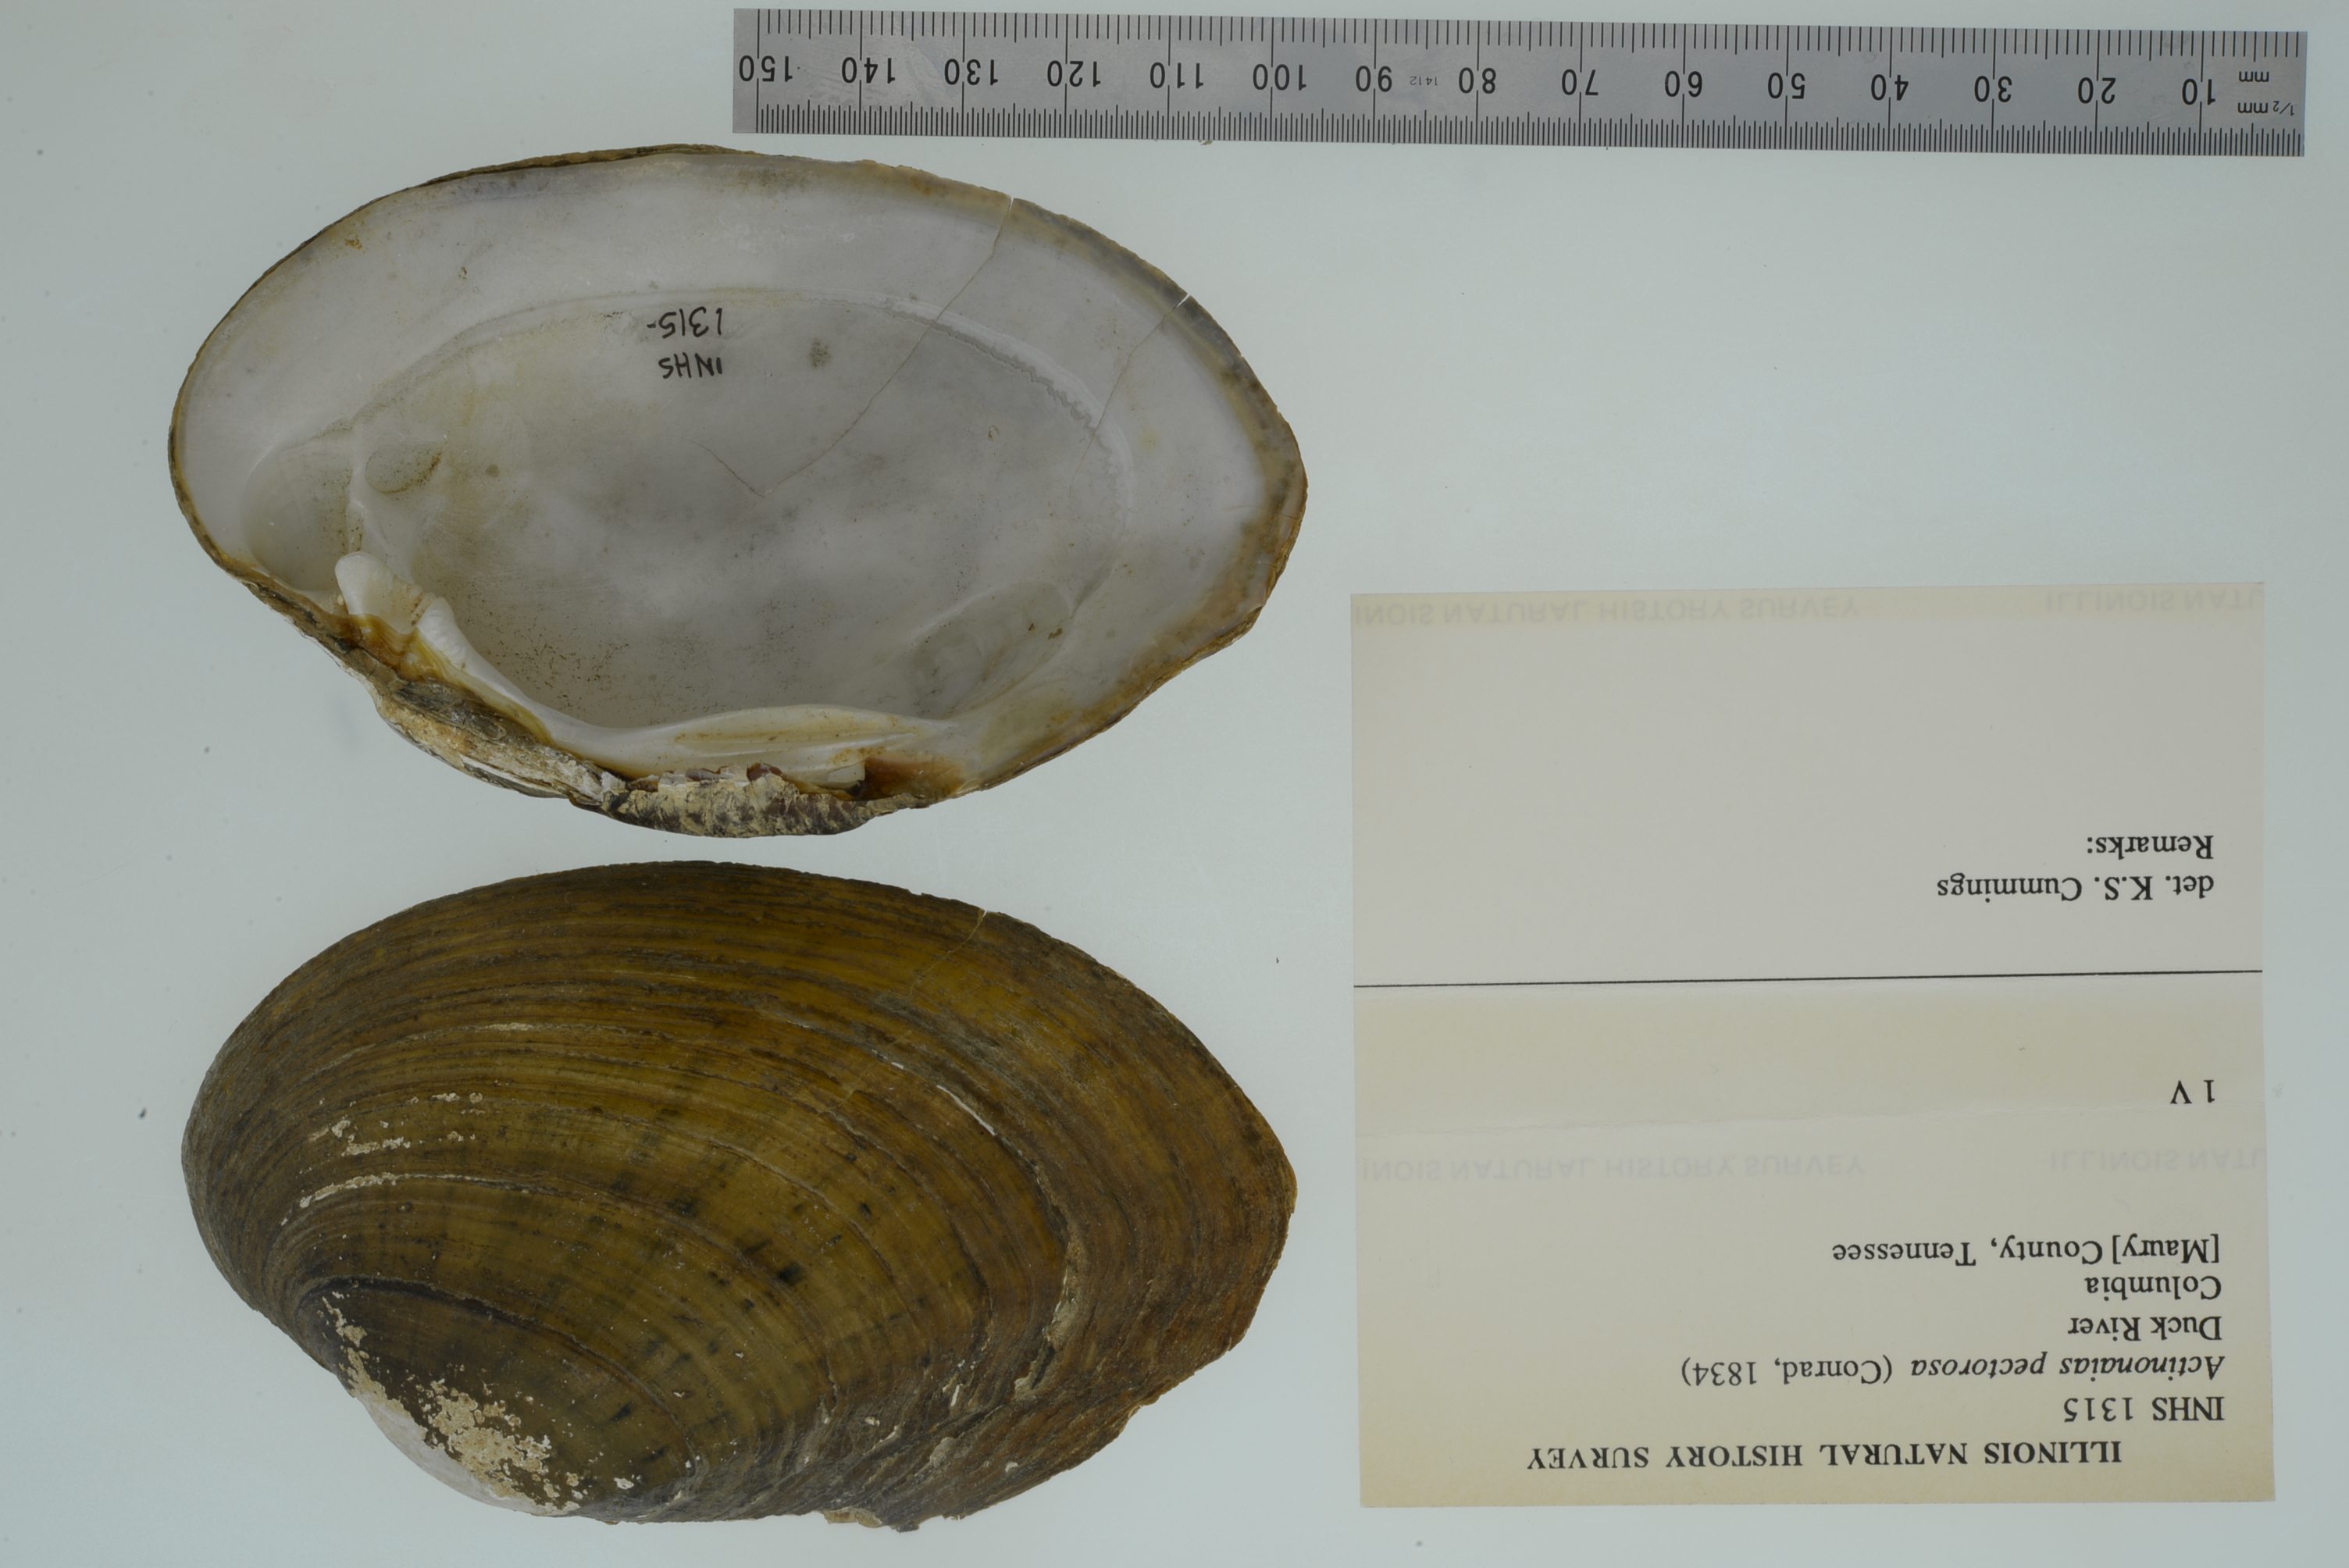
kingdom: Animalia
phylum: Mollusca
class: Bivalvia
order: Unionida
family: Unionidae
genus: Ortmanniana
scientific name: Ortmanniana pectorosa
